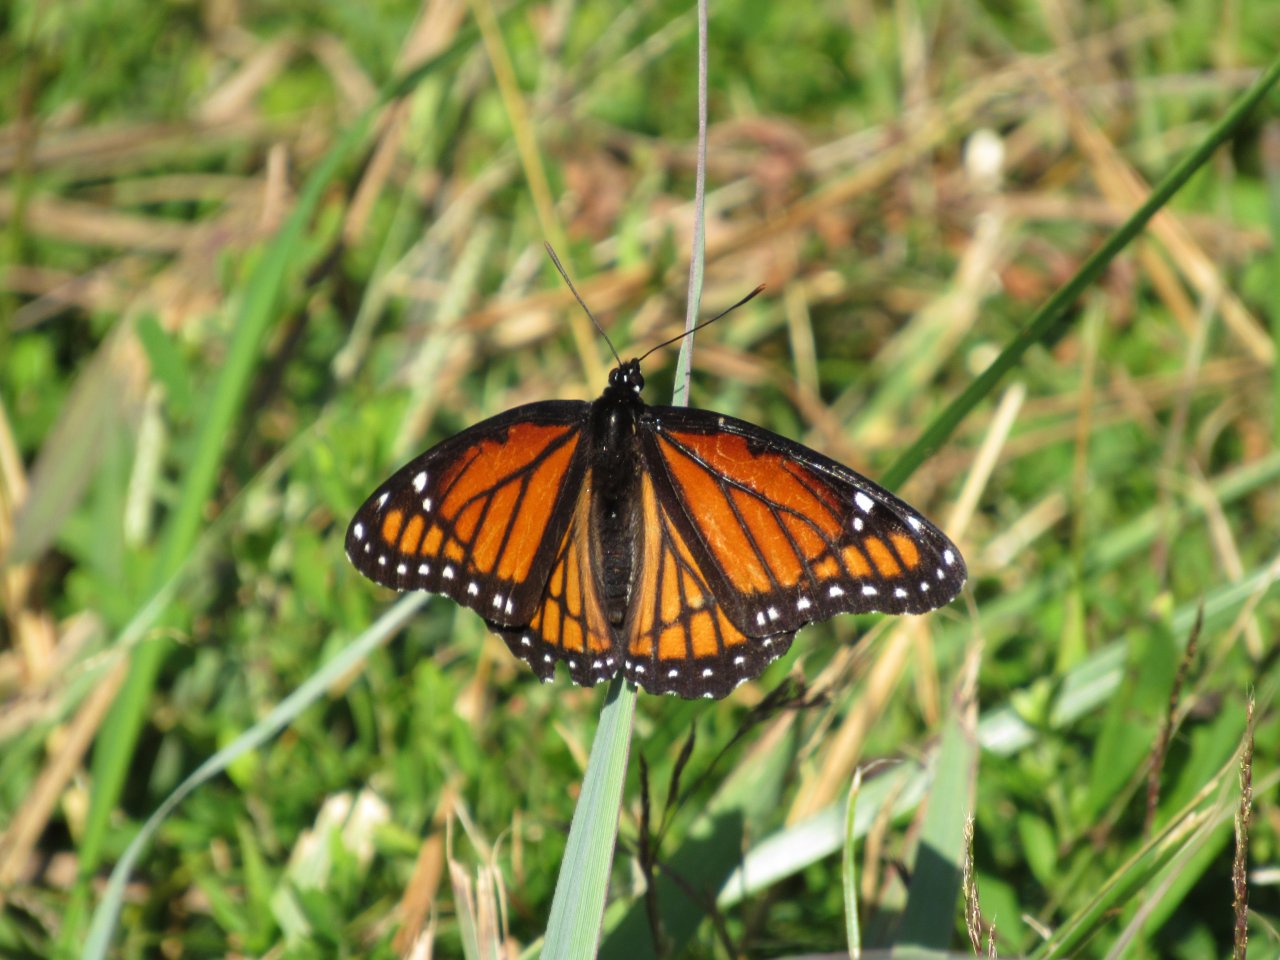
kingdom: Animalia
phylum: Arthropoda
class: Insecta
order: Lepidoptera
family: Nymphalidae
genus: Limenitis
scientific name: Limenitis archippus
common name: Viceroy
